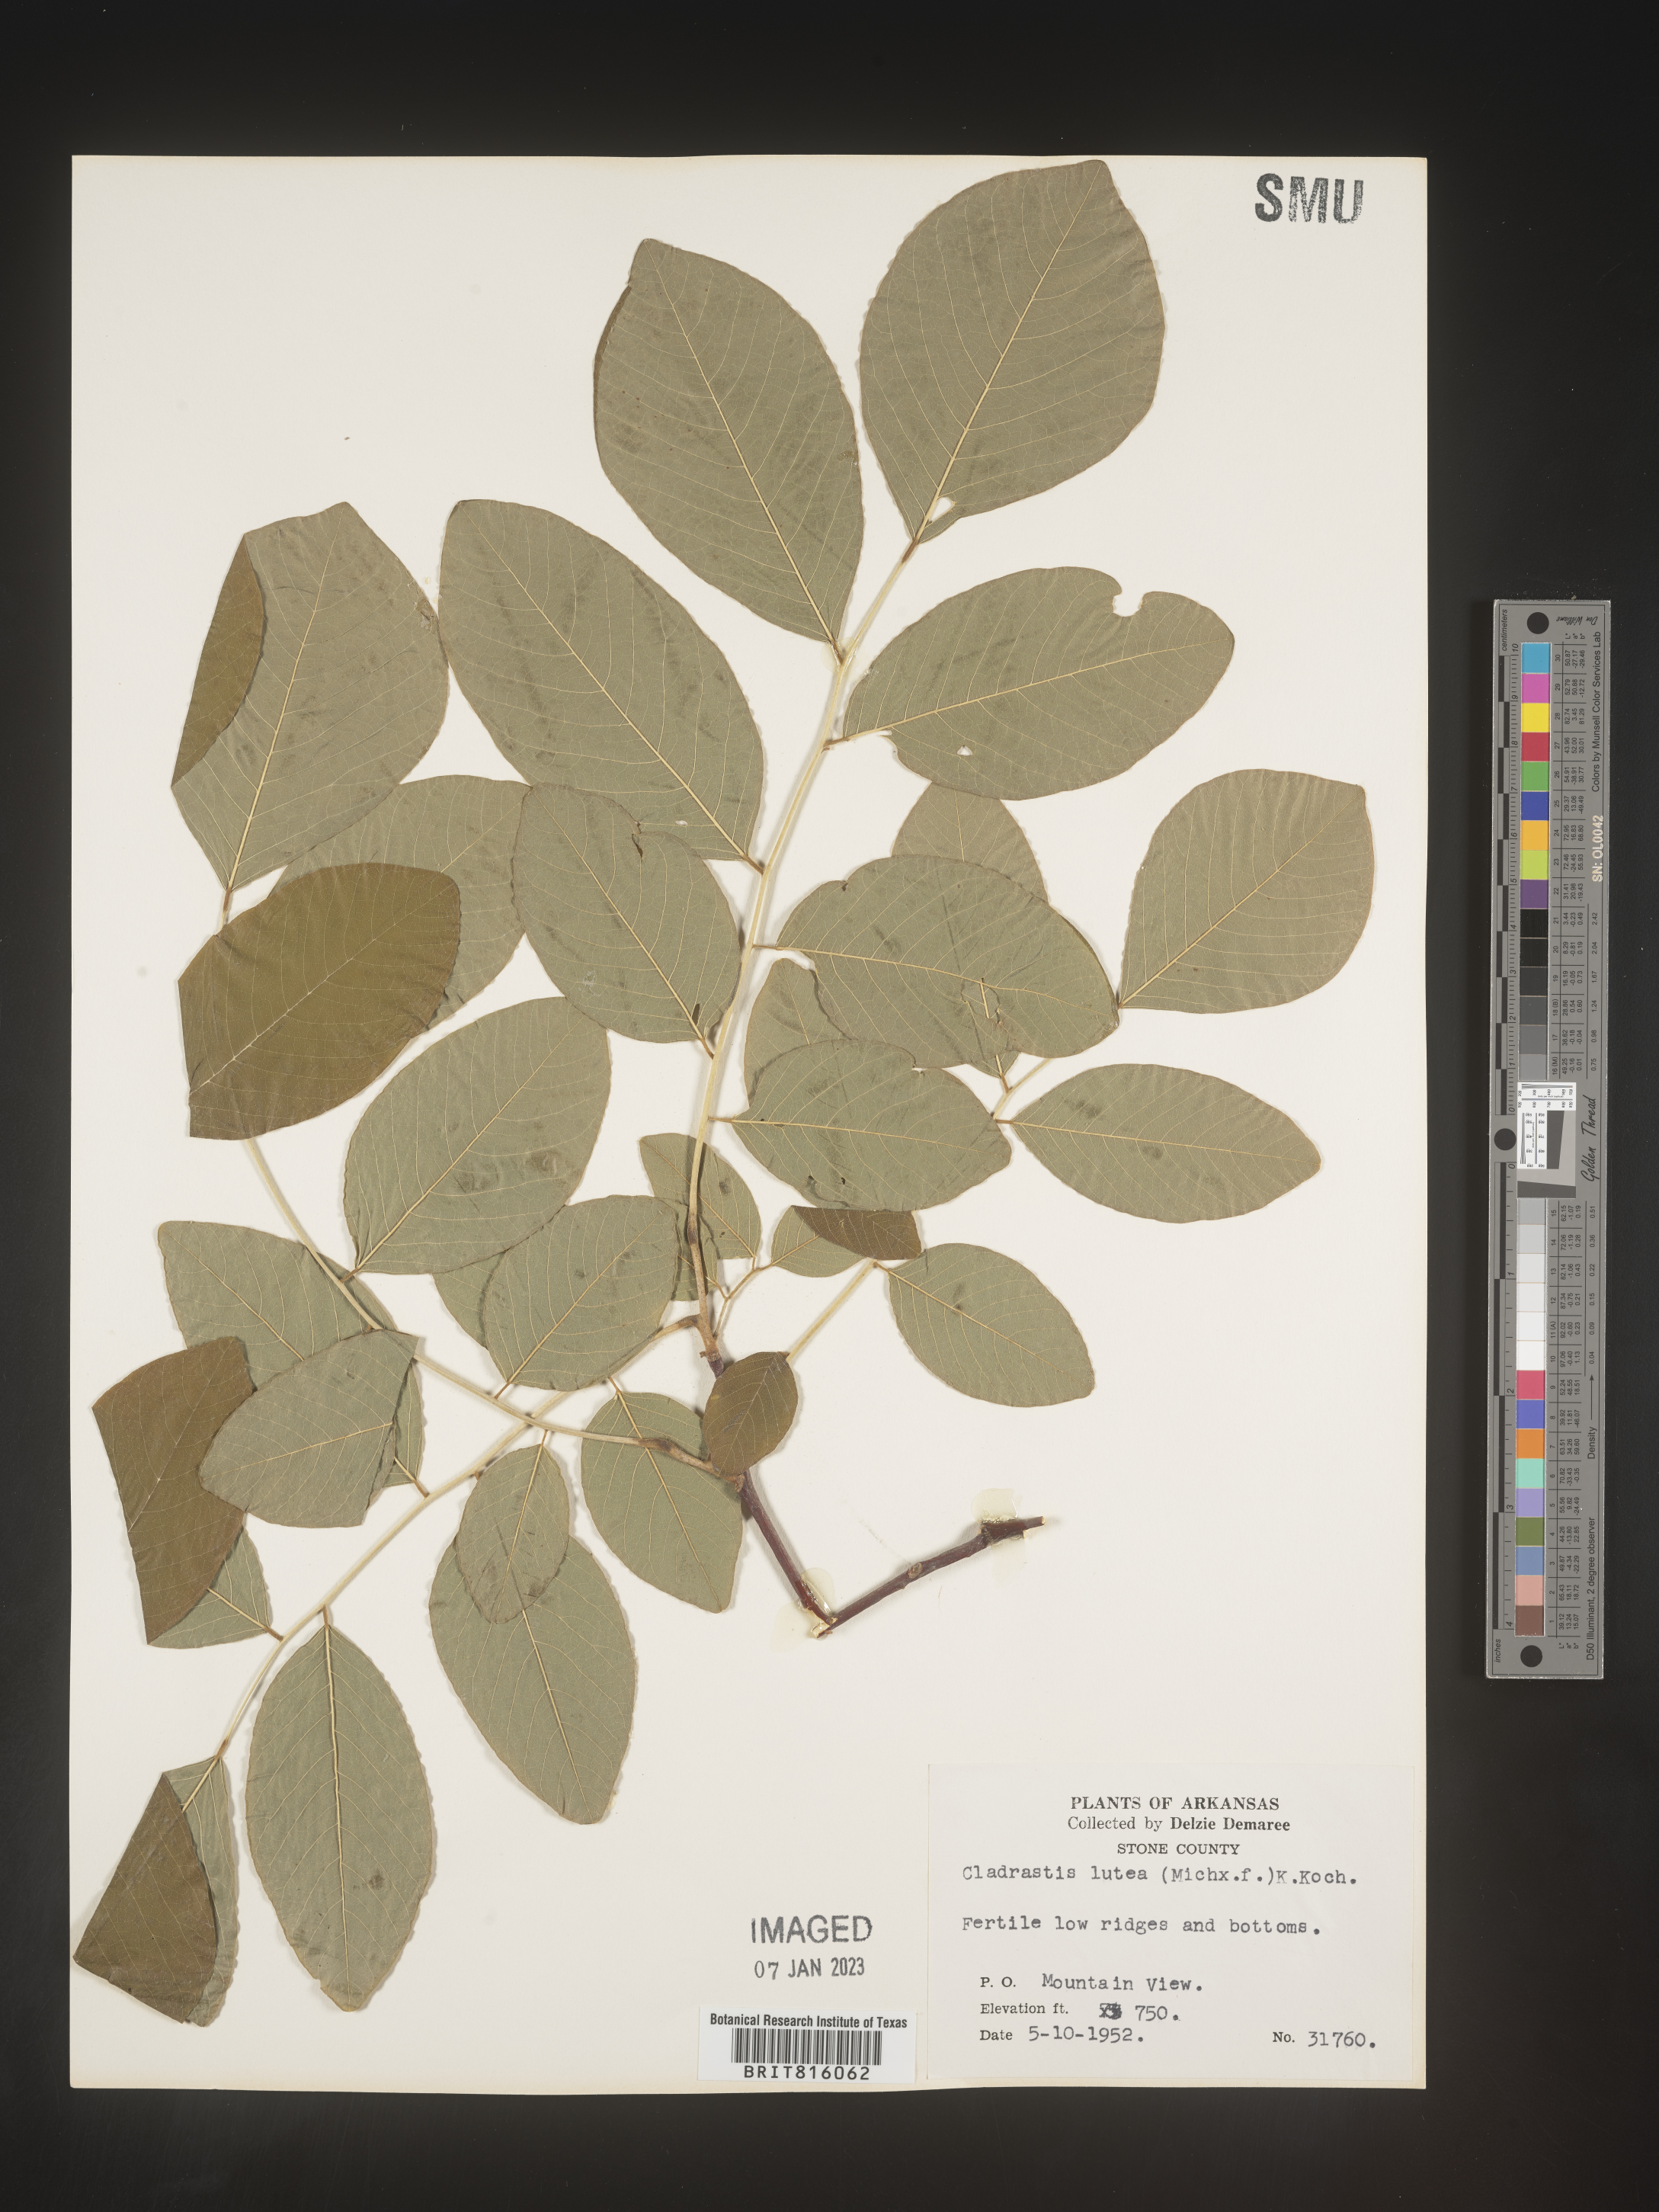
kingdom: Plantae
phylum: Tracheophyta
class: Magnoliopsida
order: Fabales
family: Fabaceae
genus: Cladrastis
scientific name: Cladrastis kentukea
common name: Kentucky yellow-wood
